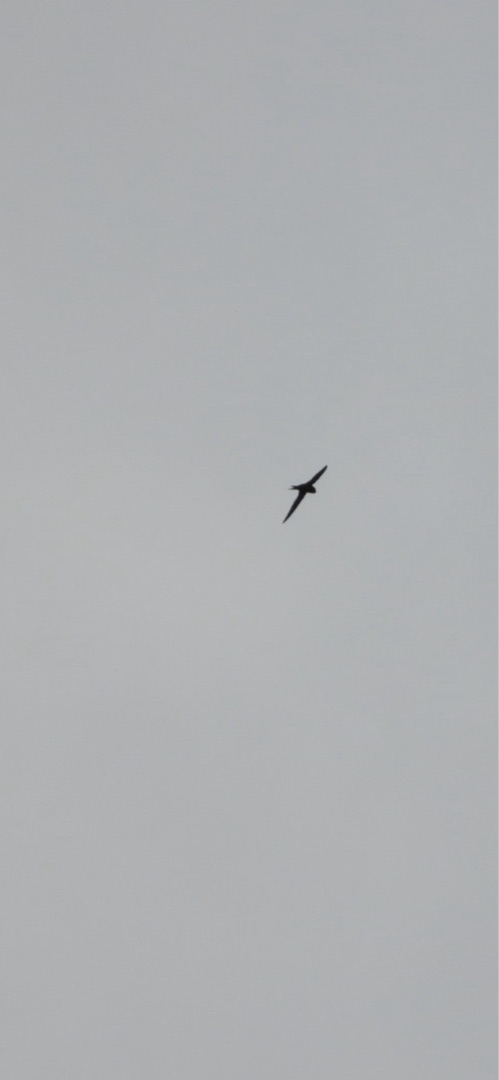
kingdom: Animalia
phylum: Chordata
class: Aves
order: Apodiformes
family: Apodidae
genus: Apus
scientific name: Apus apus
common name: Mursejler
